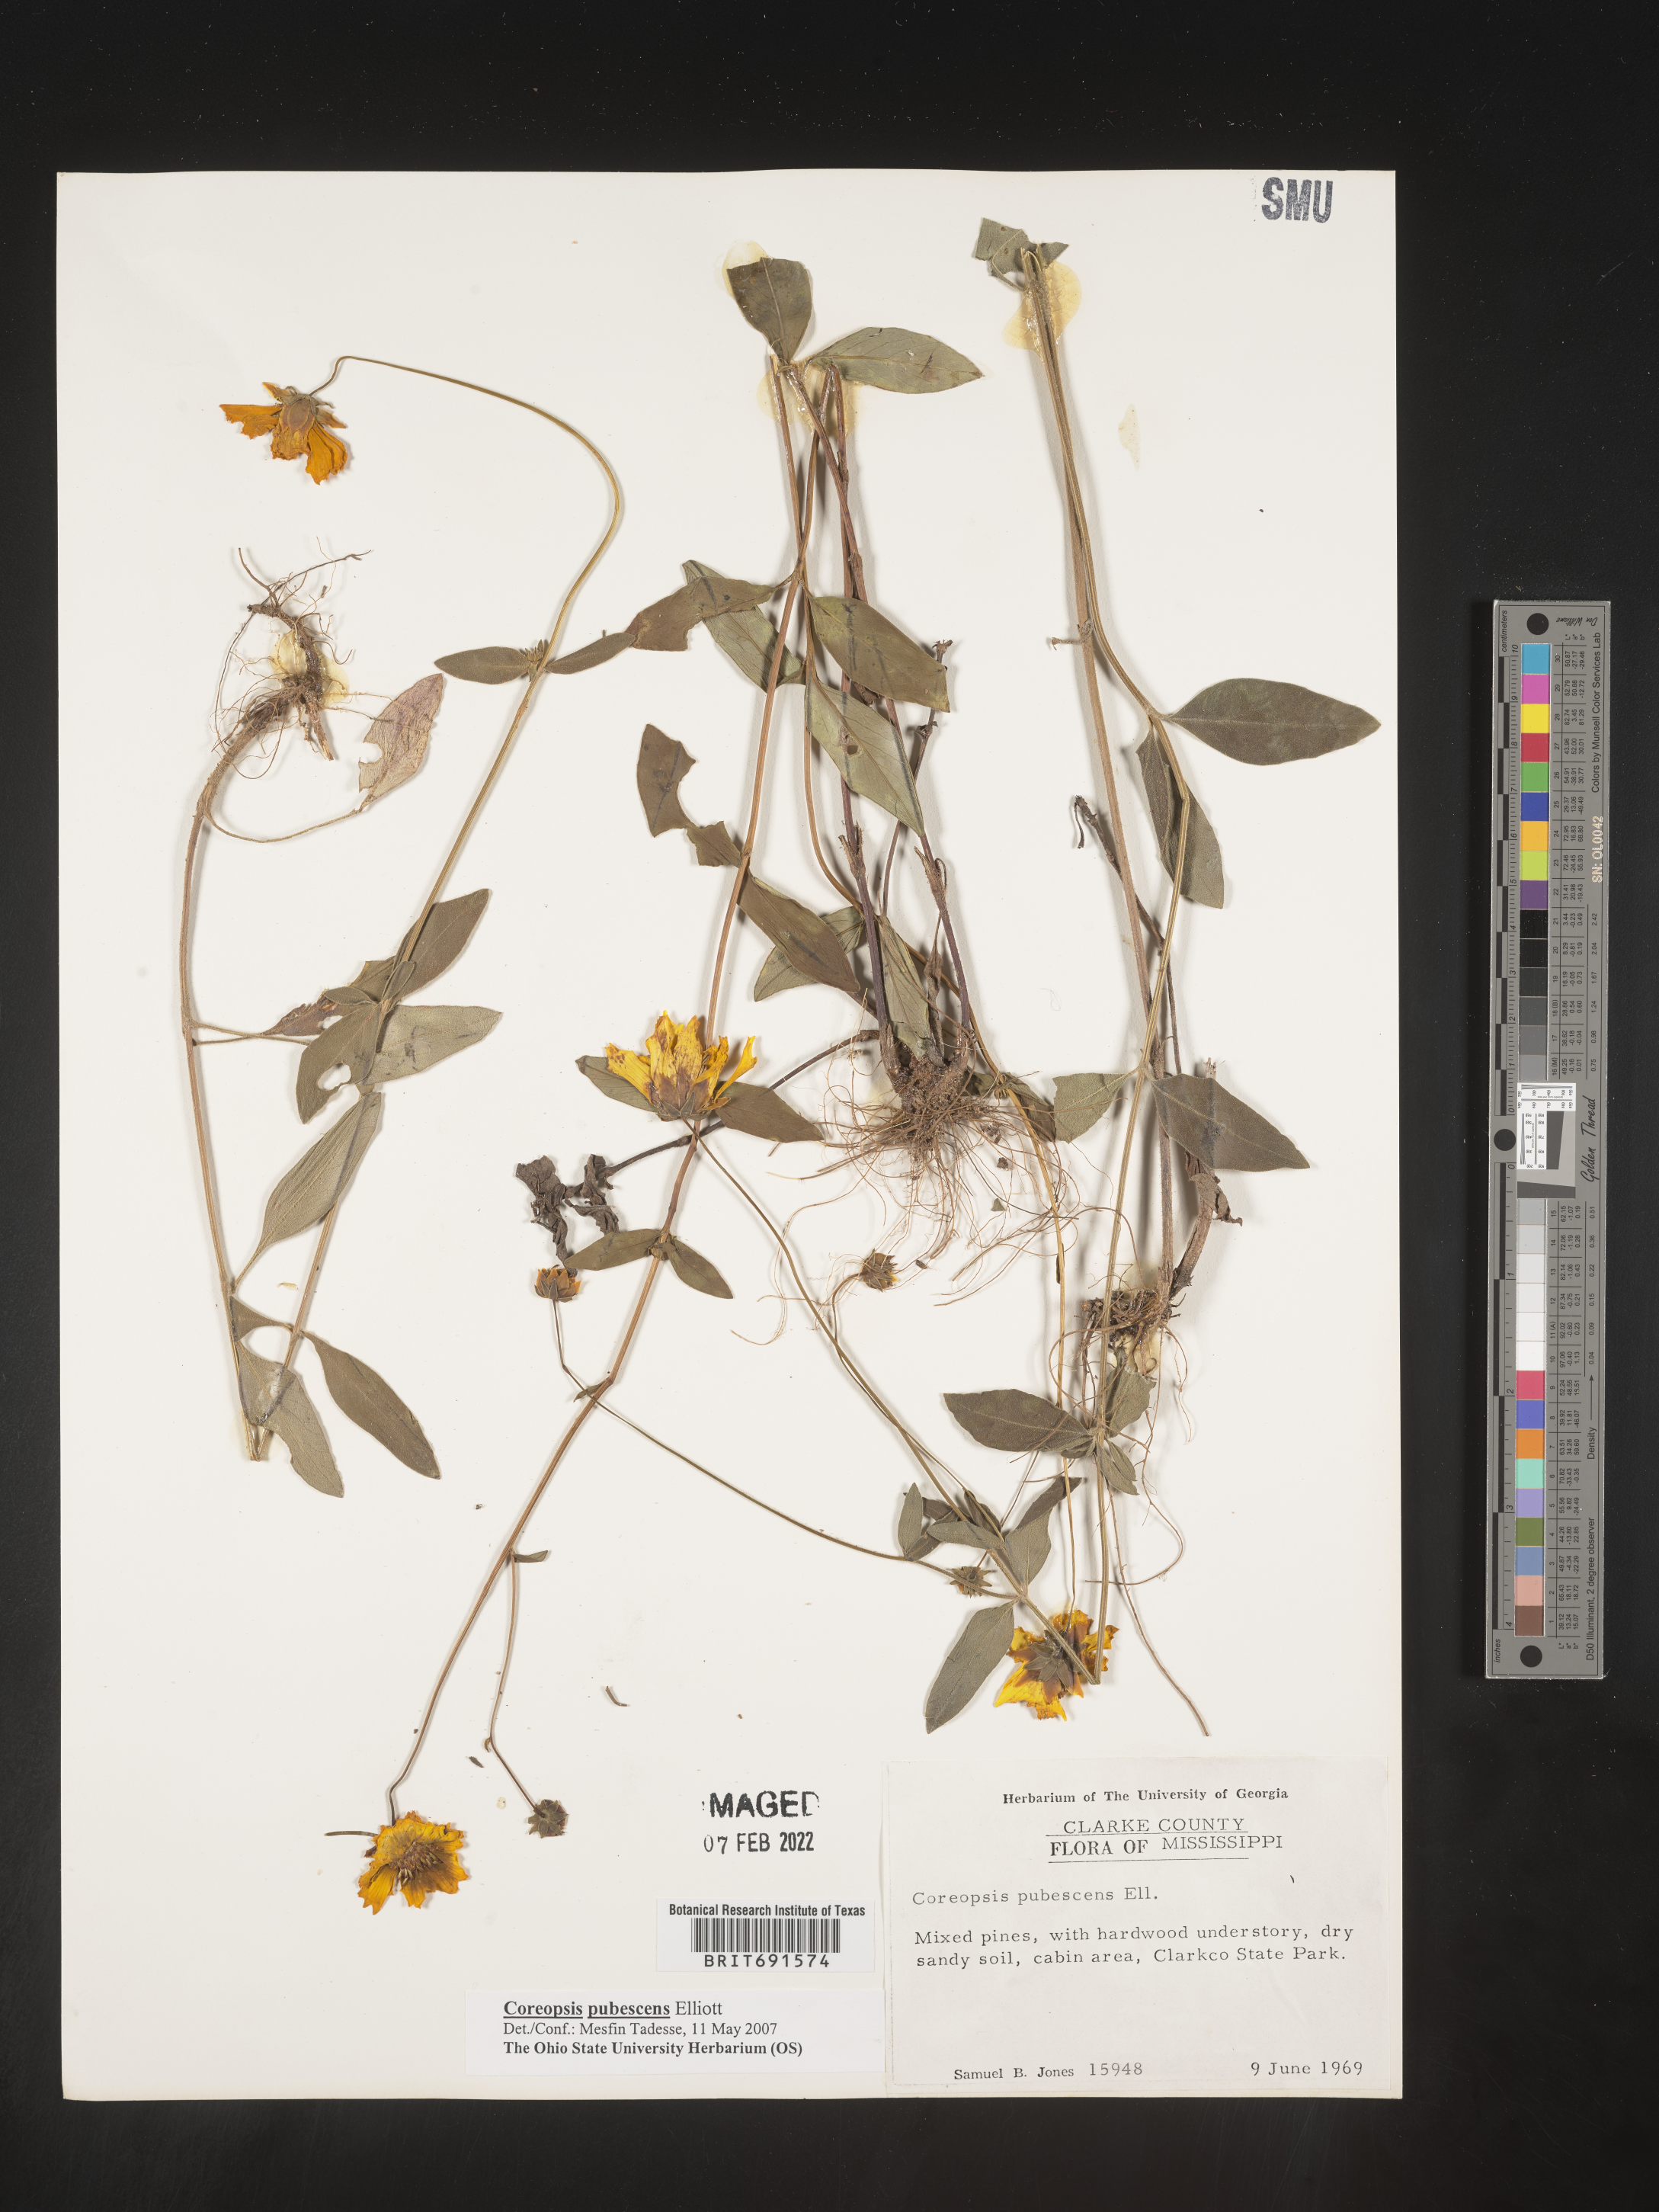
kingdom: Plantae
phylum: Tracheophyta
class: Magnoliopsida
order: Asterales
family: Asteraceae
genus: Coreopsis
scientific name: Coreopsis pubescens
